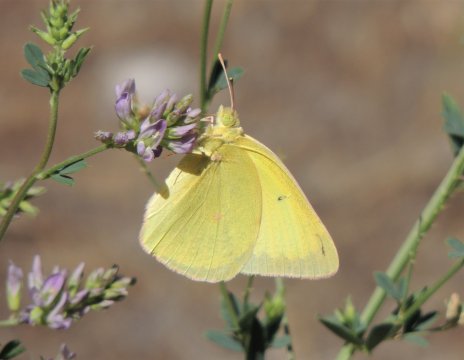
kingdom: Animalia
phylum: Arthropoda
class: Insecta
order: Lepidoptera
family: Pieridae
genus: Colias
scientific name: Colias christina
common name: Christina Sulphur
